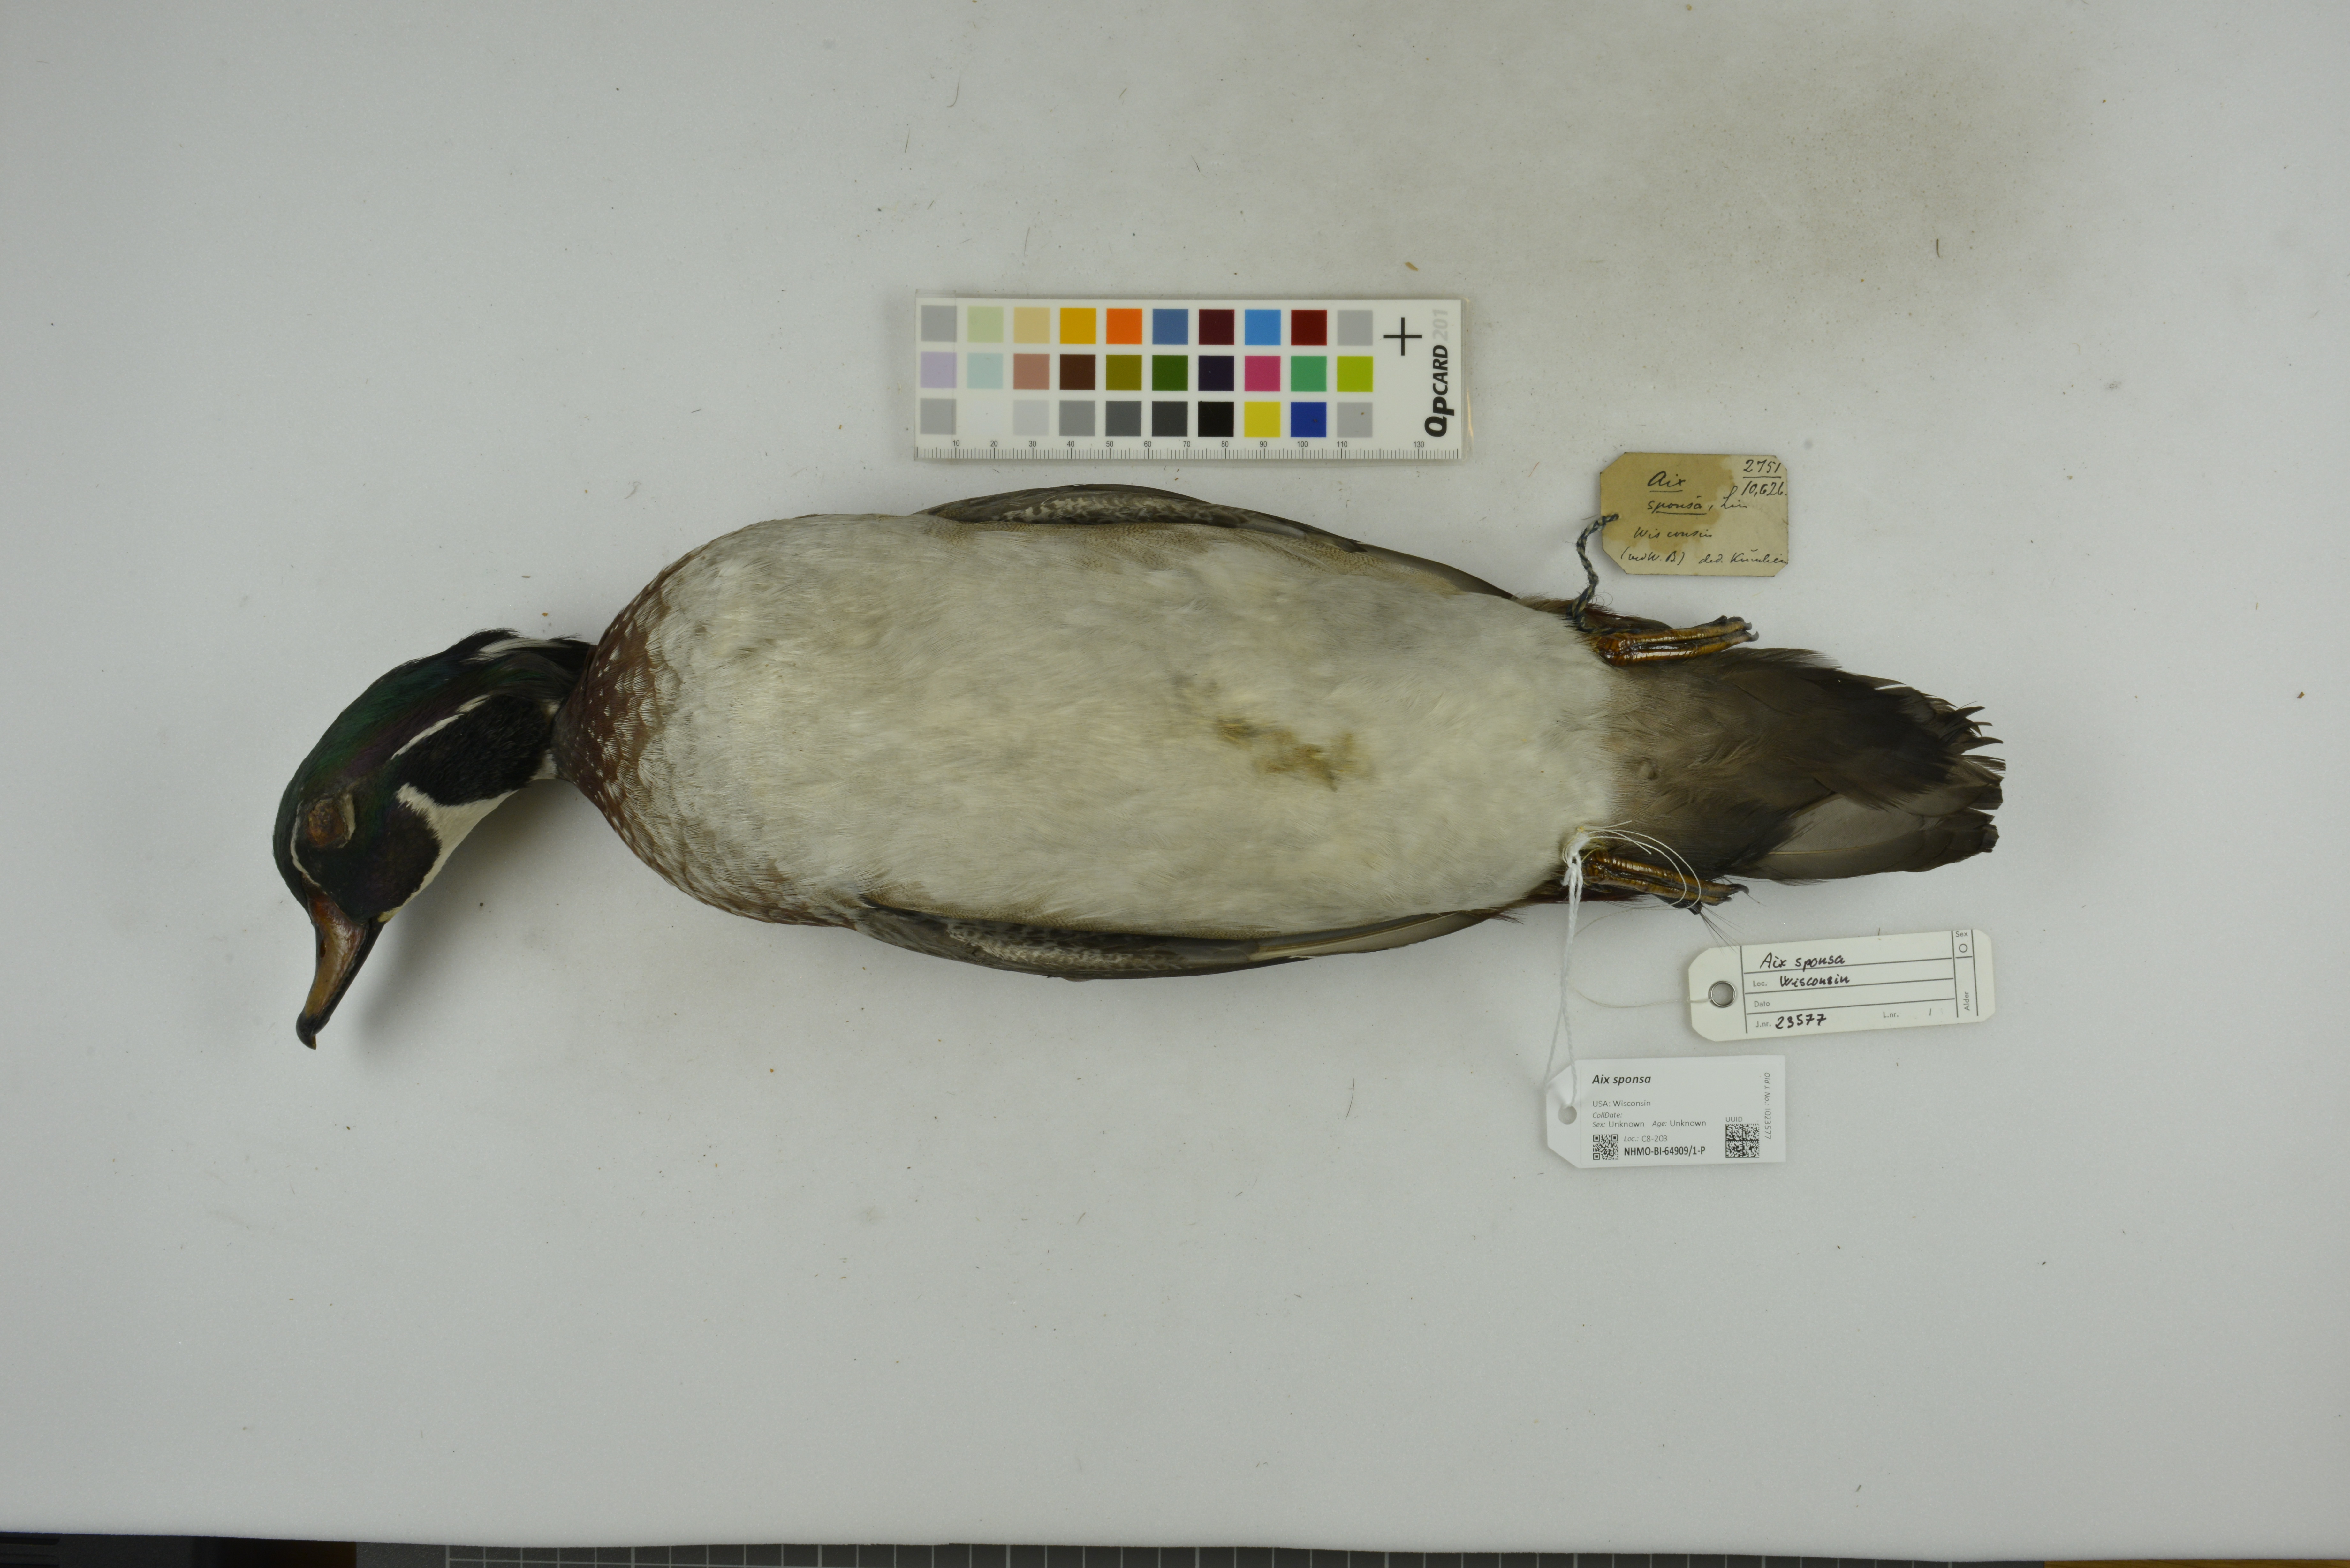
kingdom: Animalia
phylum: Chordata
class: Aves
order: Anseriformes
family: Anatidae
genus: Aix
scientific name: Aix sponsa
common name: Wood duck
